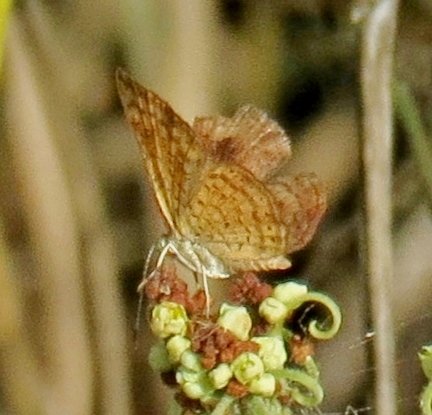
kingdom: Animalia
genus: Calephelis
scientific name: Calephelis nemesis
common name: Fatal Metalmark
